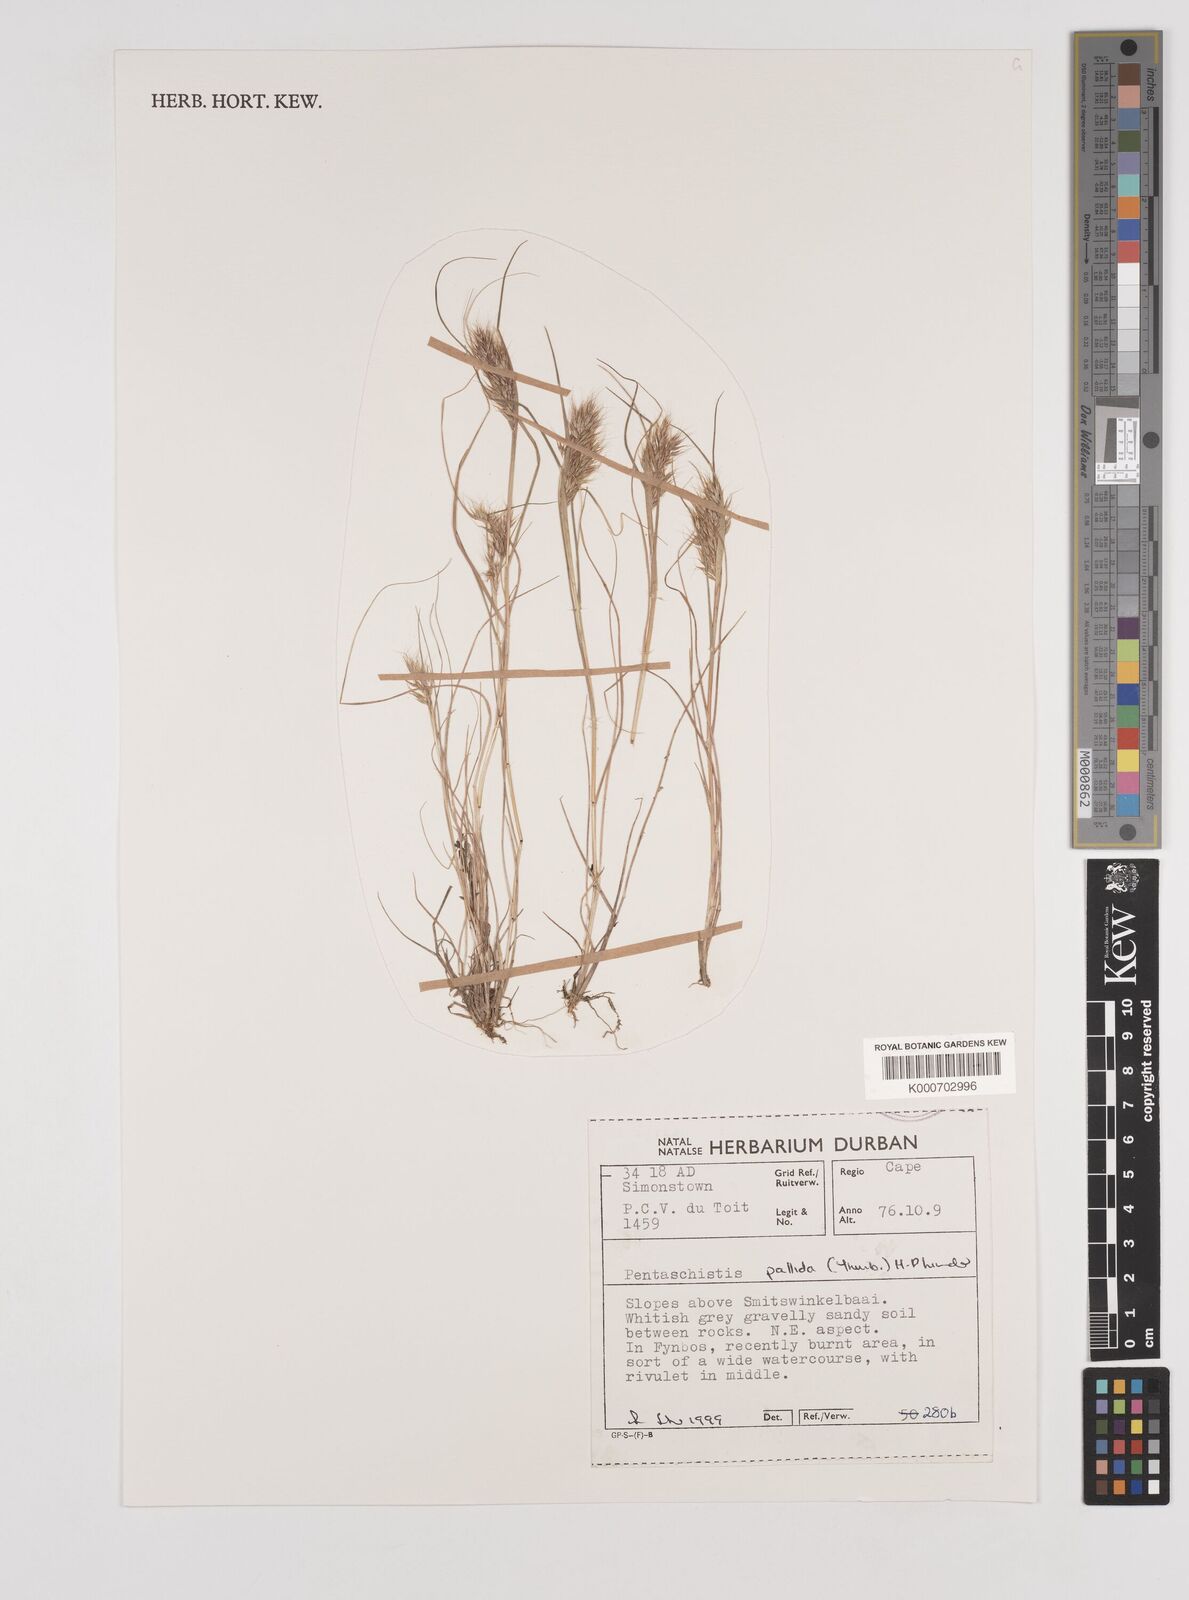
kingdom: Plantae
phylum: Tracheophyta
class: Liliopsida
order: Poales
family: Poaceae
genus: Pentameris
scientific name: Pentameris pallida
